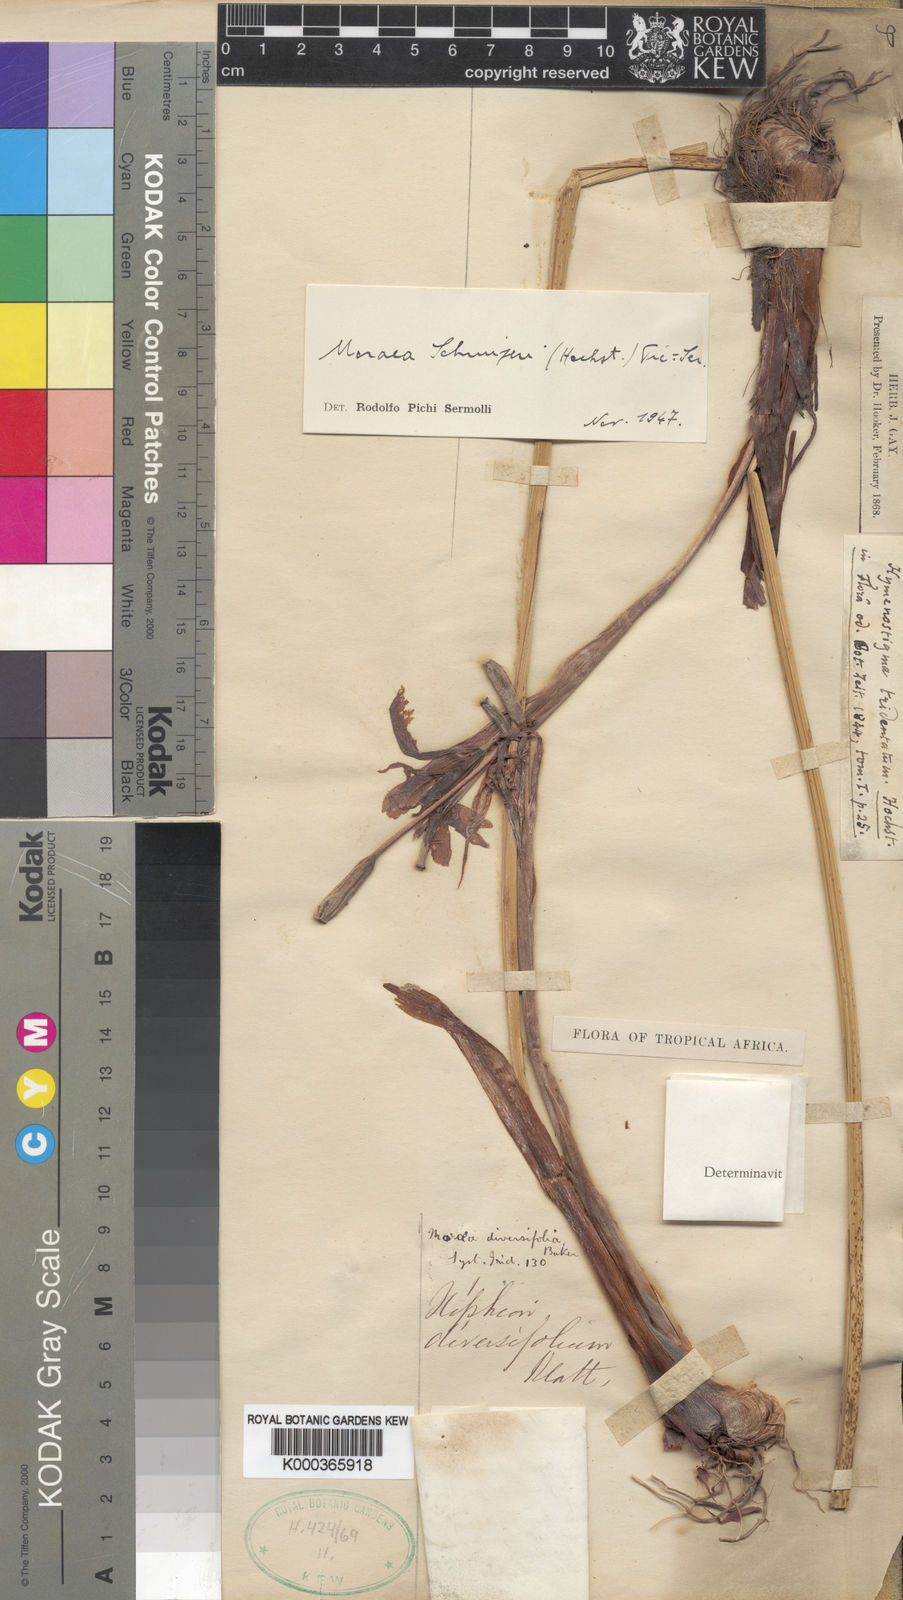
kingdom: Plantae
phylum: Tracheophyta
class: Liliopsida
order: Asparagales
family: Iridaceae
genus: Moraea
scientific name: Moraea schimperi
